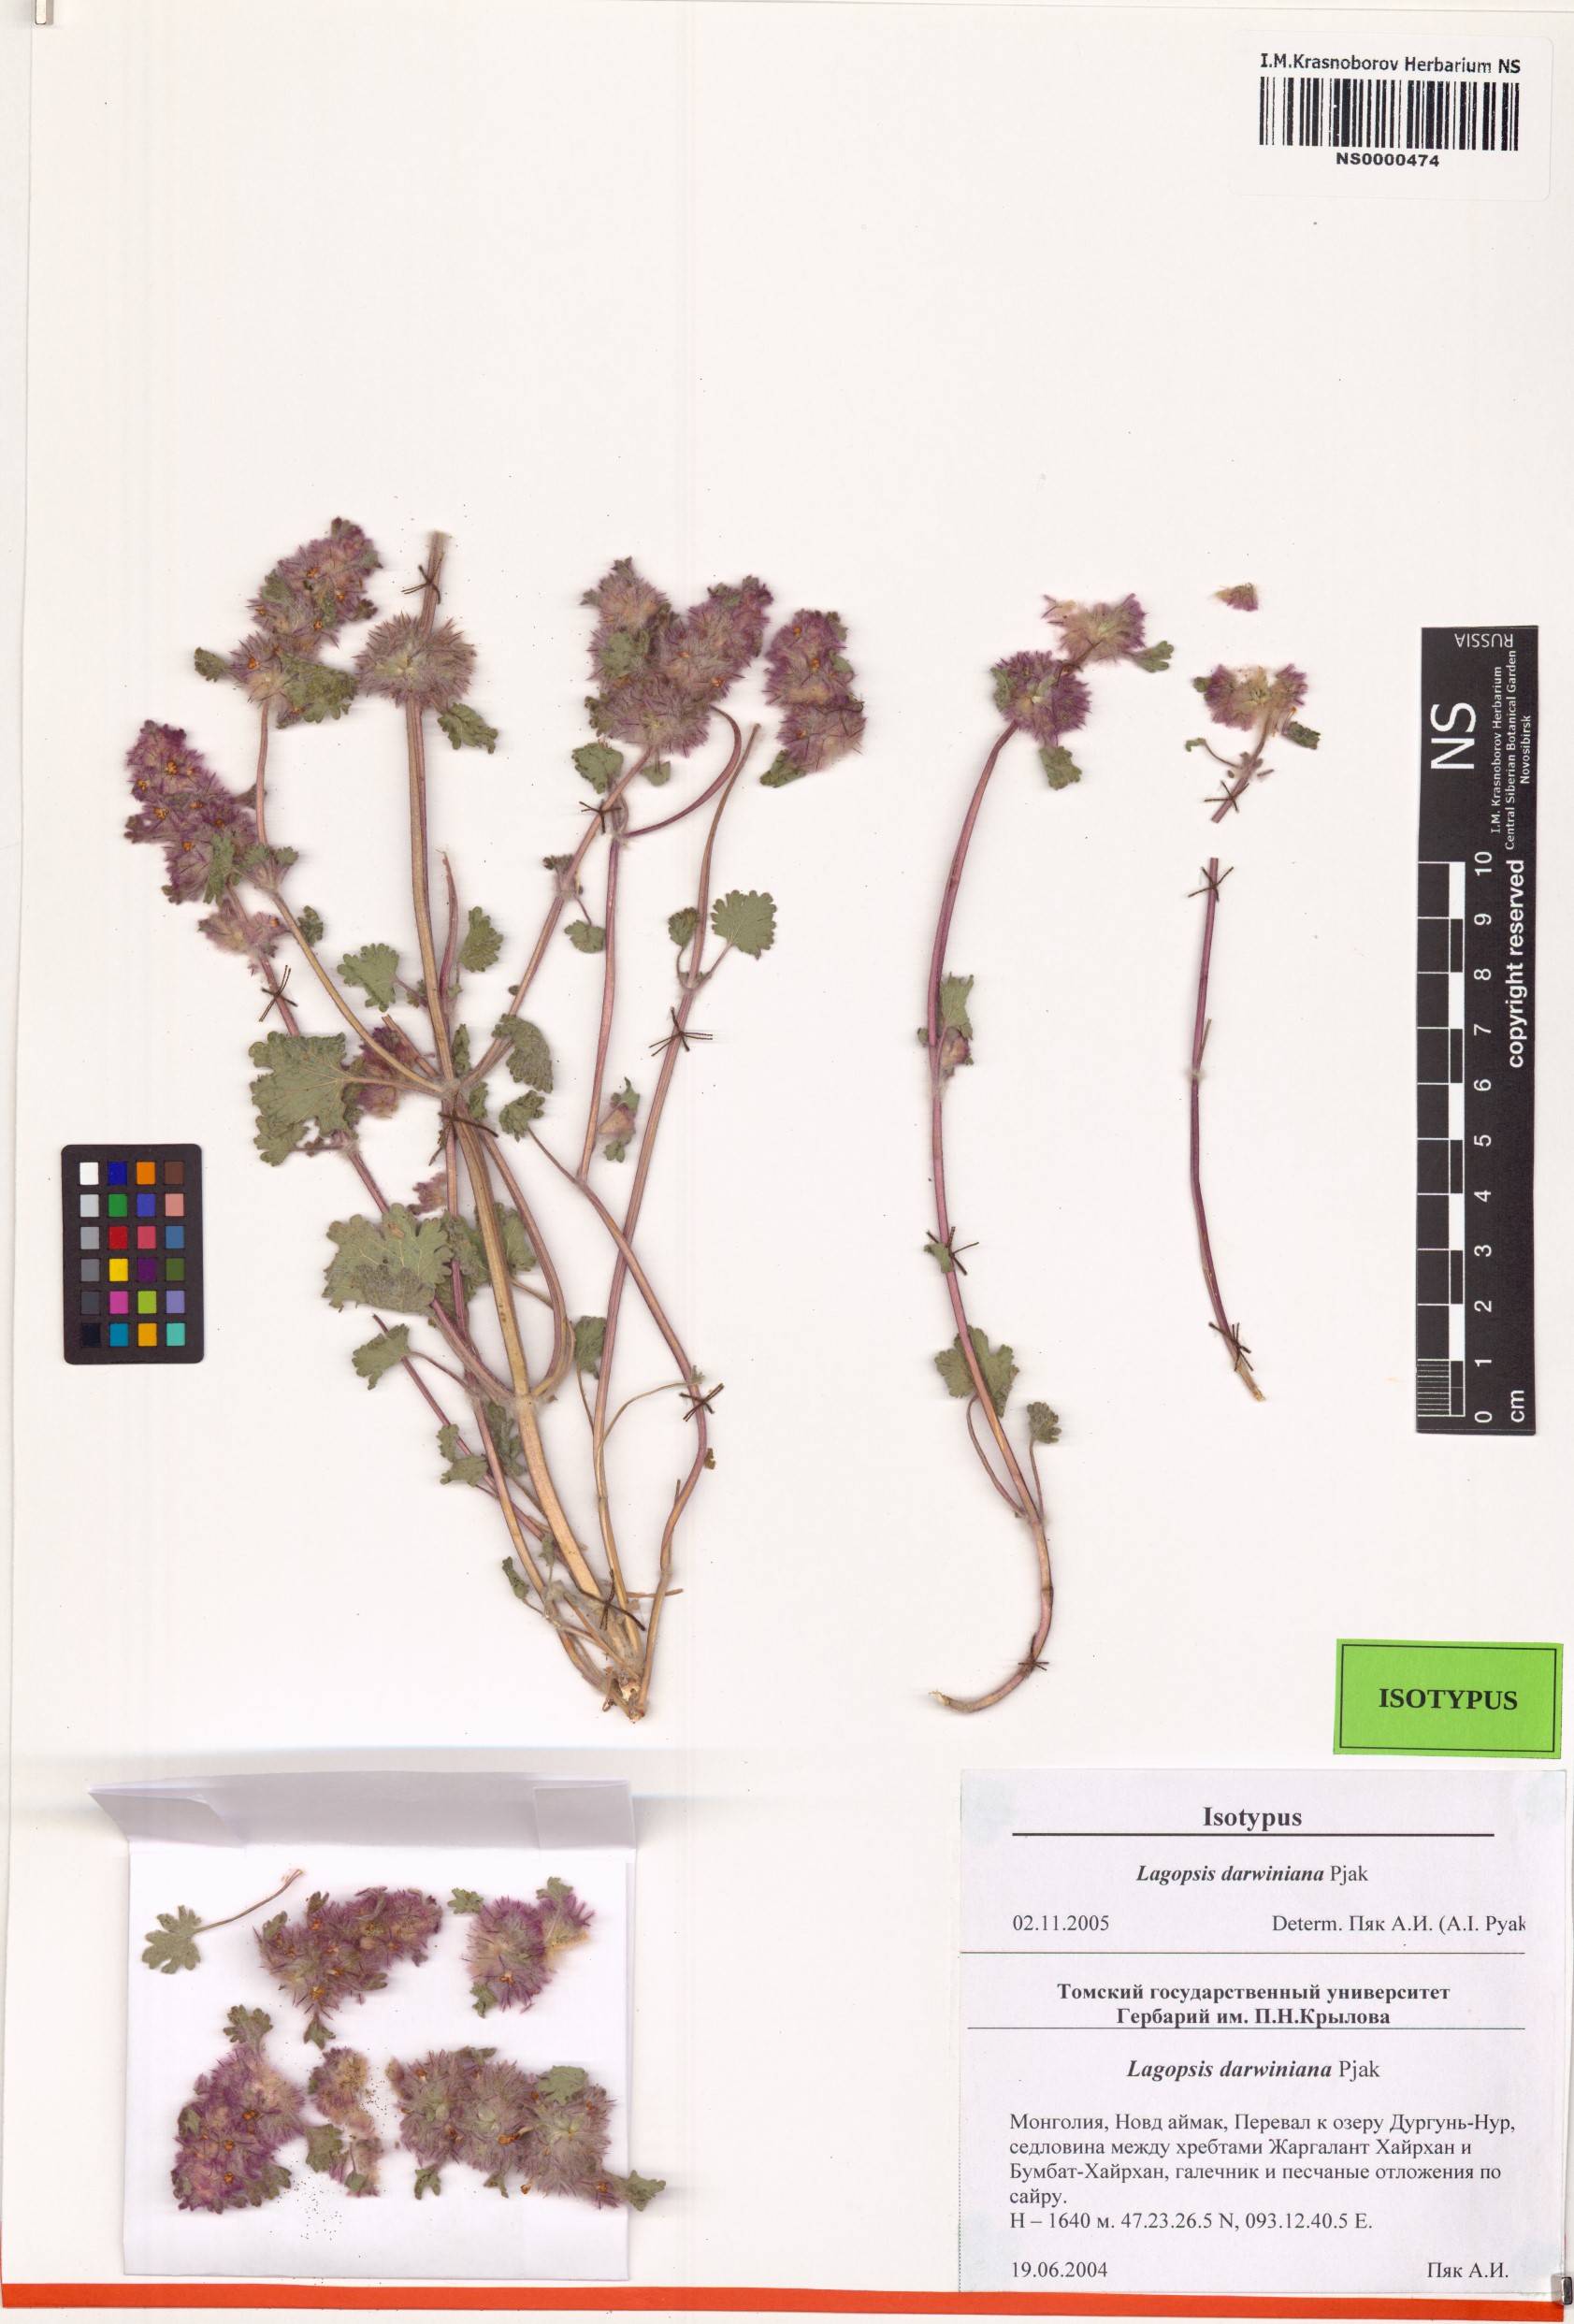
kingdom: Plantae
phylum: Tracheophyta
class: Magnoliopsida
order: Lamiales
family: Lamiaceae
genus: Lagopsis
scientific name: Lagopsis darwiniana
